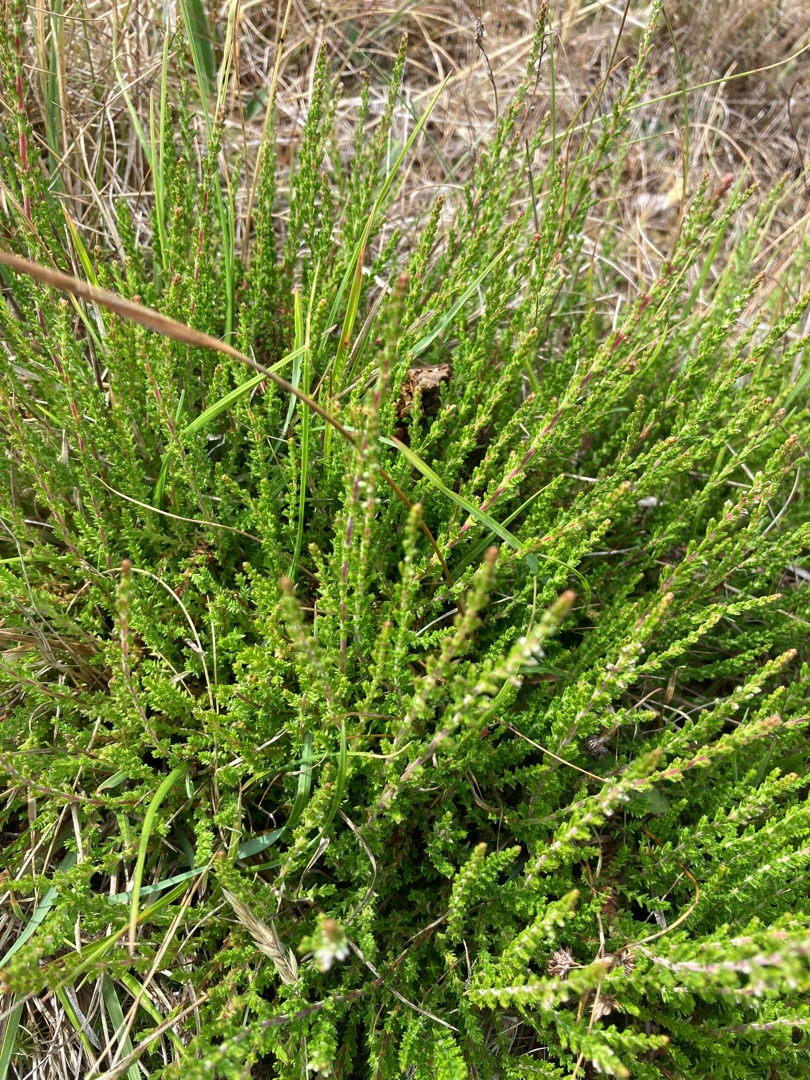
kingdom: Plantae
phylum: Tracheophyta
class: Magnoliopsida
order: Ericales
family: Ericaceae
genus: Calluna
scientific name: Calluna vulgaris
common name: Hedelyng
